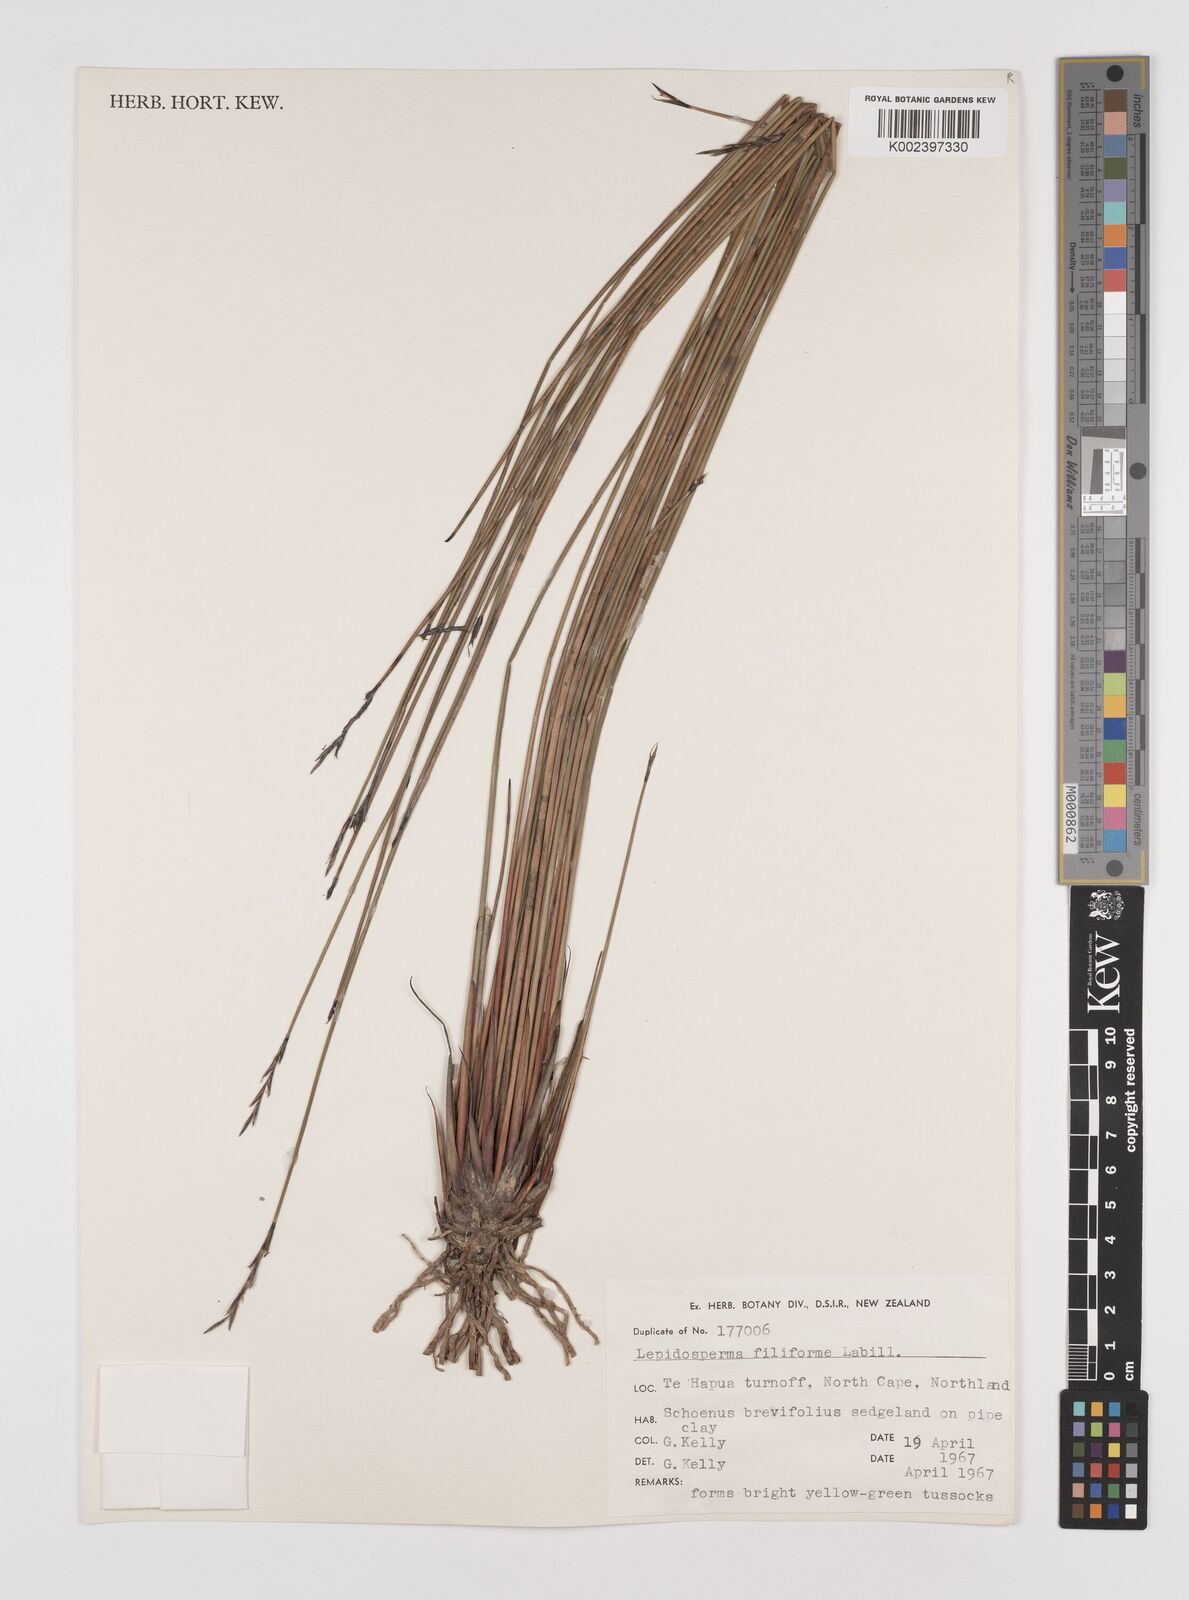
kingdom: Plantae
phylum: Tracheophyta
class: Liliopsida
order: Poales
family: Cyperaceae
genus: Lepidosperma
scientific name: Lepidosperma filiforme
